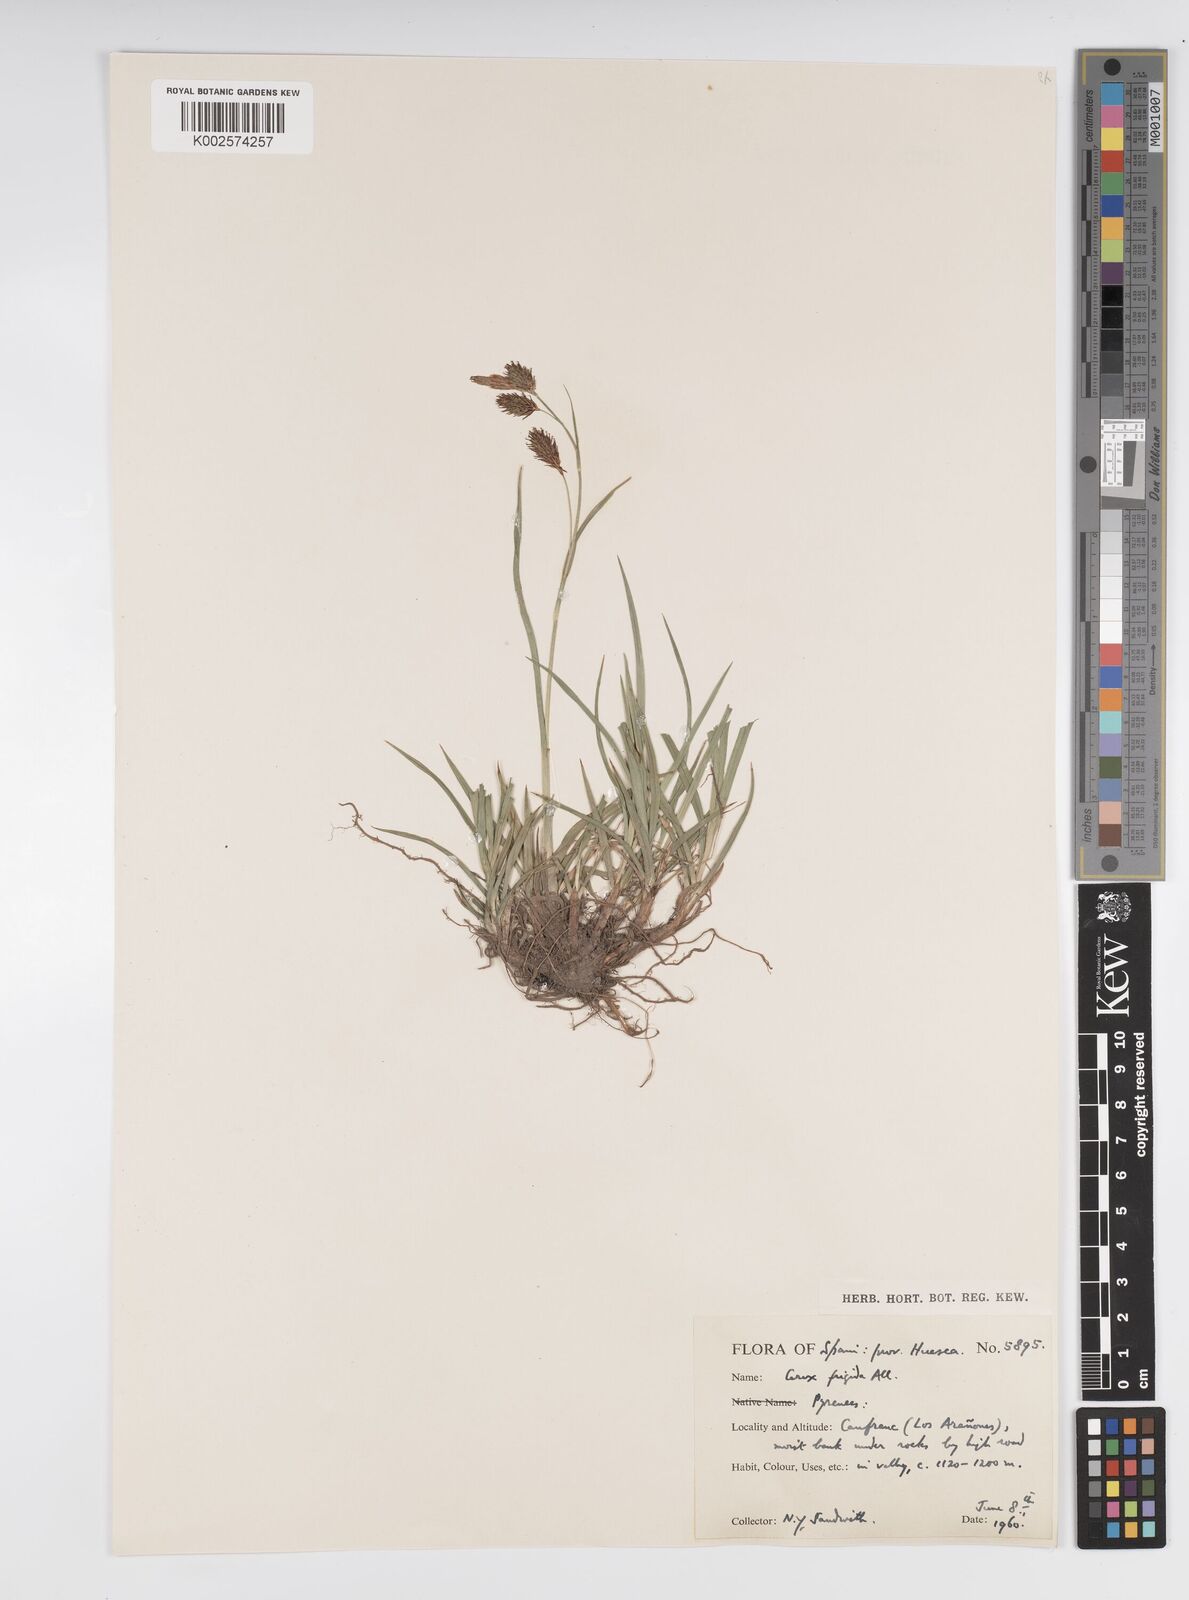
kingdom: Plantae
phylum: Tracheophyta
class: Liliopsida
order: Poales
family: Cyperaceae
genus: Carex
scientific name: Carex frigida
